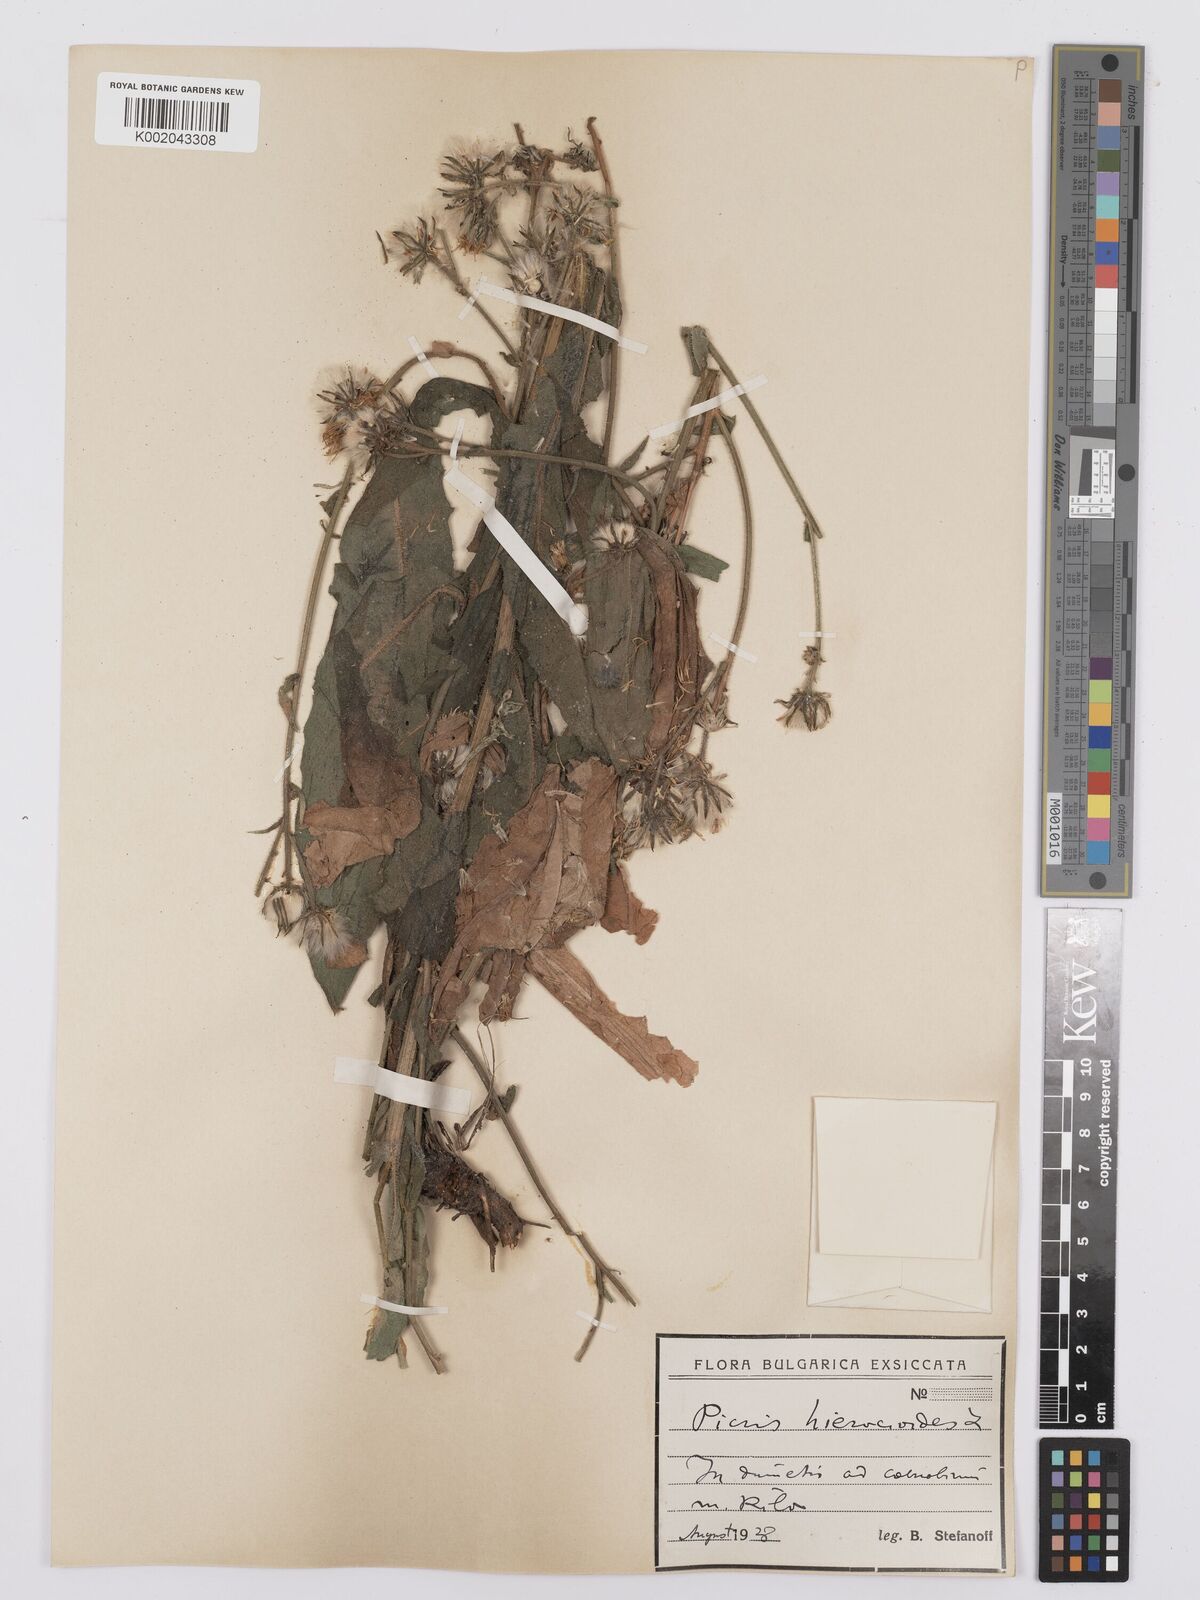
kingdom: Plantae
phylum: Tracheophyta
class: Magnoliopsida
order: Asterales
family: Asteraceae
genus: Picris
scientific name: Picris hieracioides
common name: Hawkweed oxtongue
